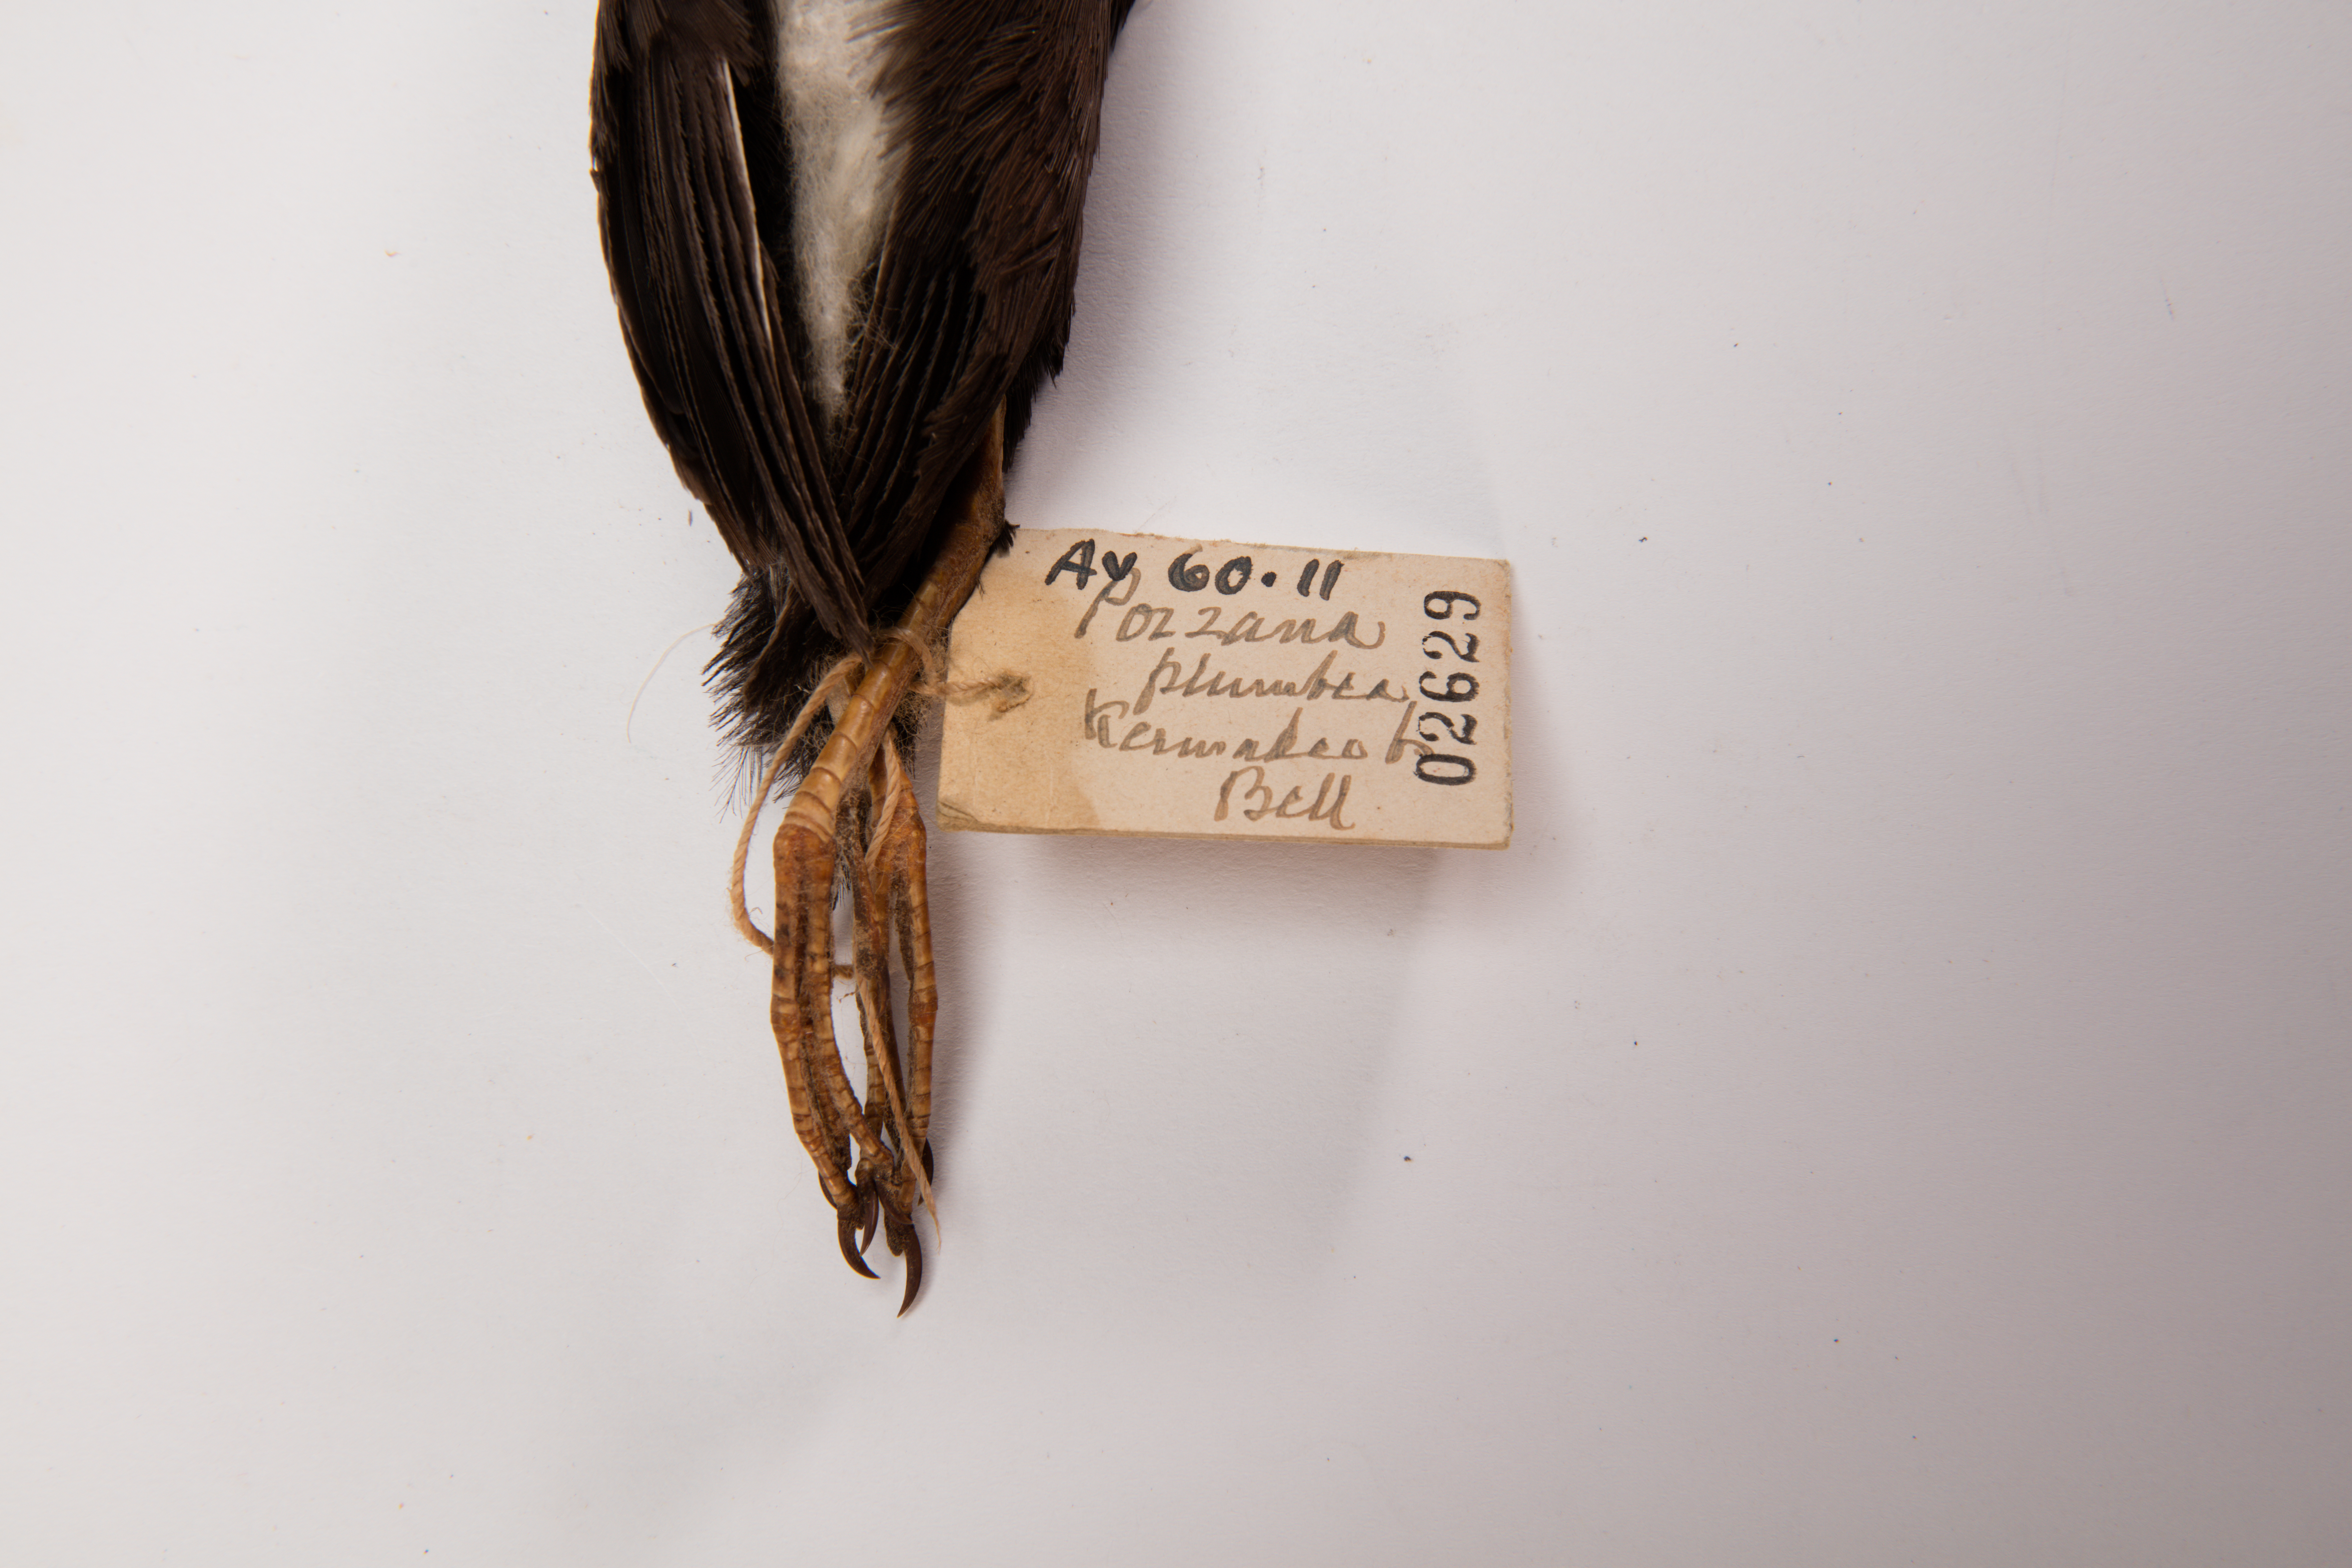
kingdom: Animalia
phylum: Chordata
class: Aves
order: Gruiformes
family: Rallidae
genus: Porzana
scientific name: Porzana tabuensis
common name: Spotless crake
